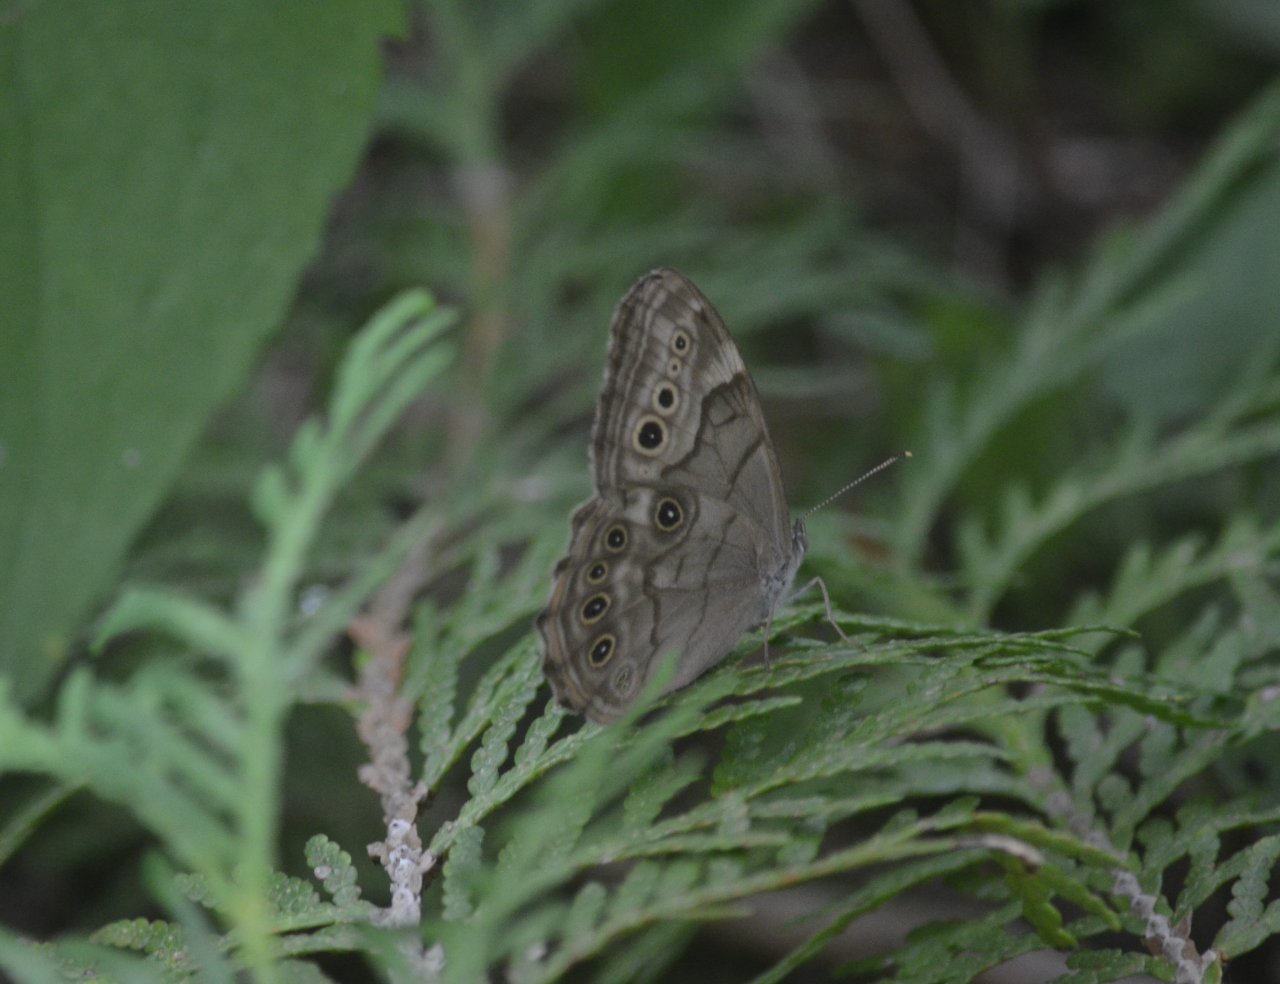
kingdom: Animalia
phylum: Arthropoda
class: Insecta
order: Lepidoptera
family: Nymphalidae
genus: Lethe
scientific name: Lethe anthedon
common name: Northern Pearly-Eye
